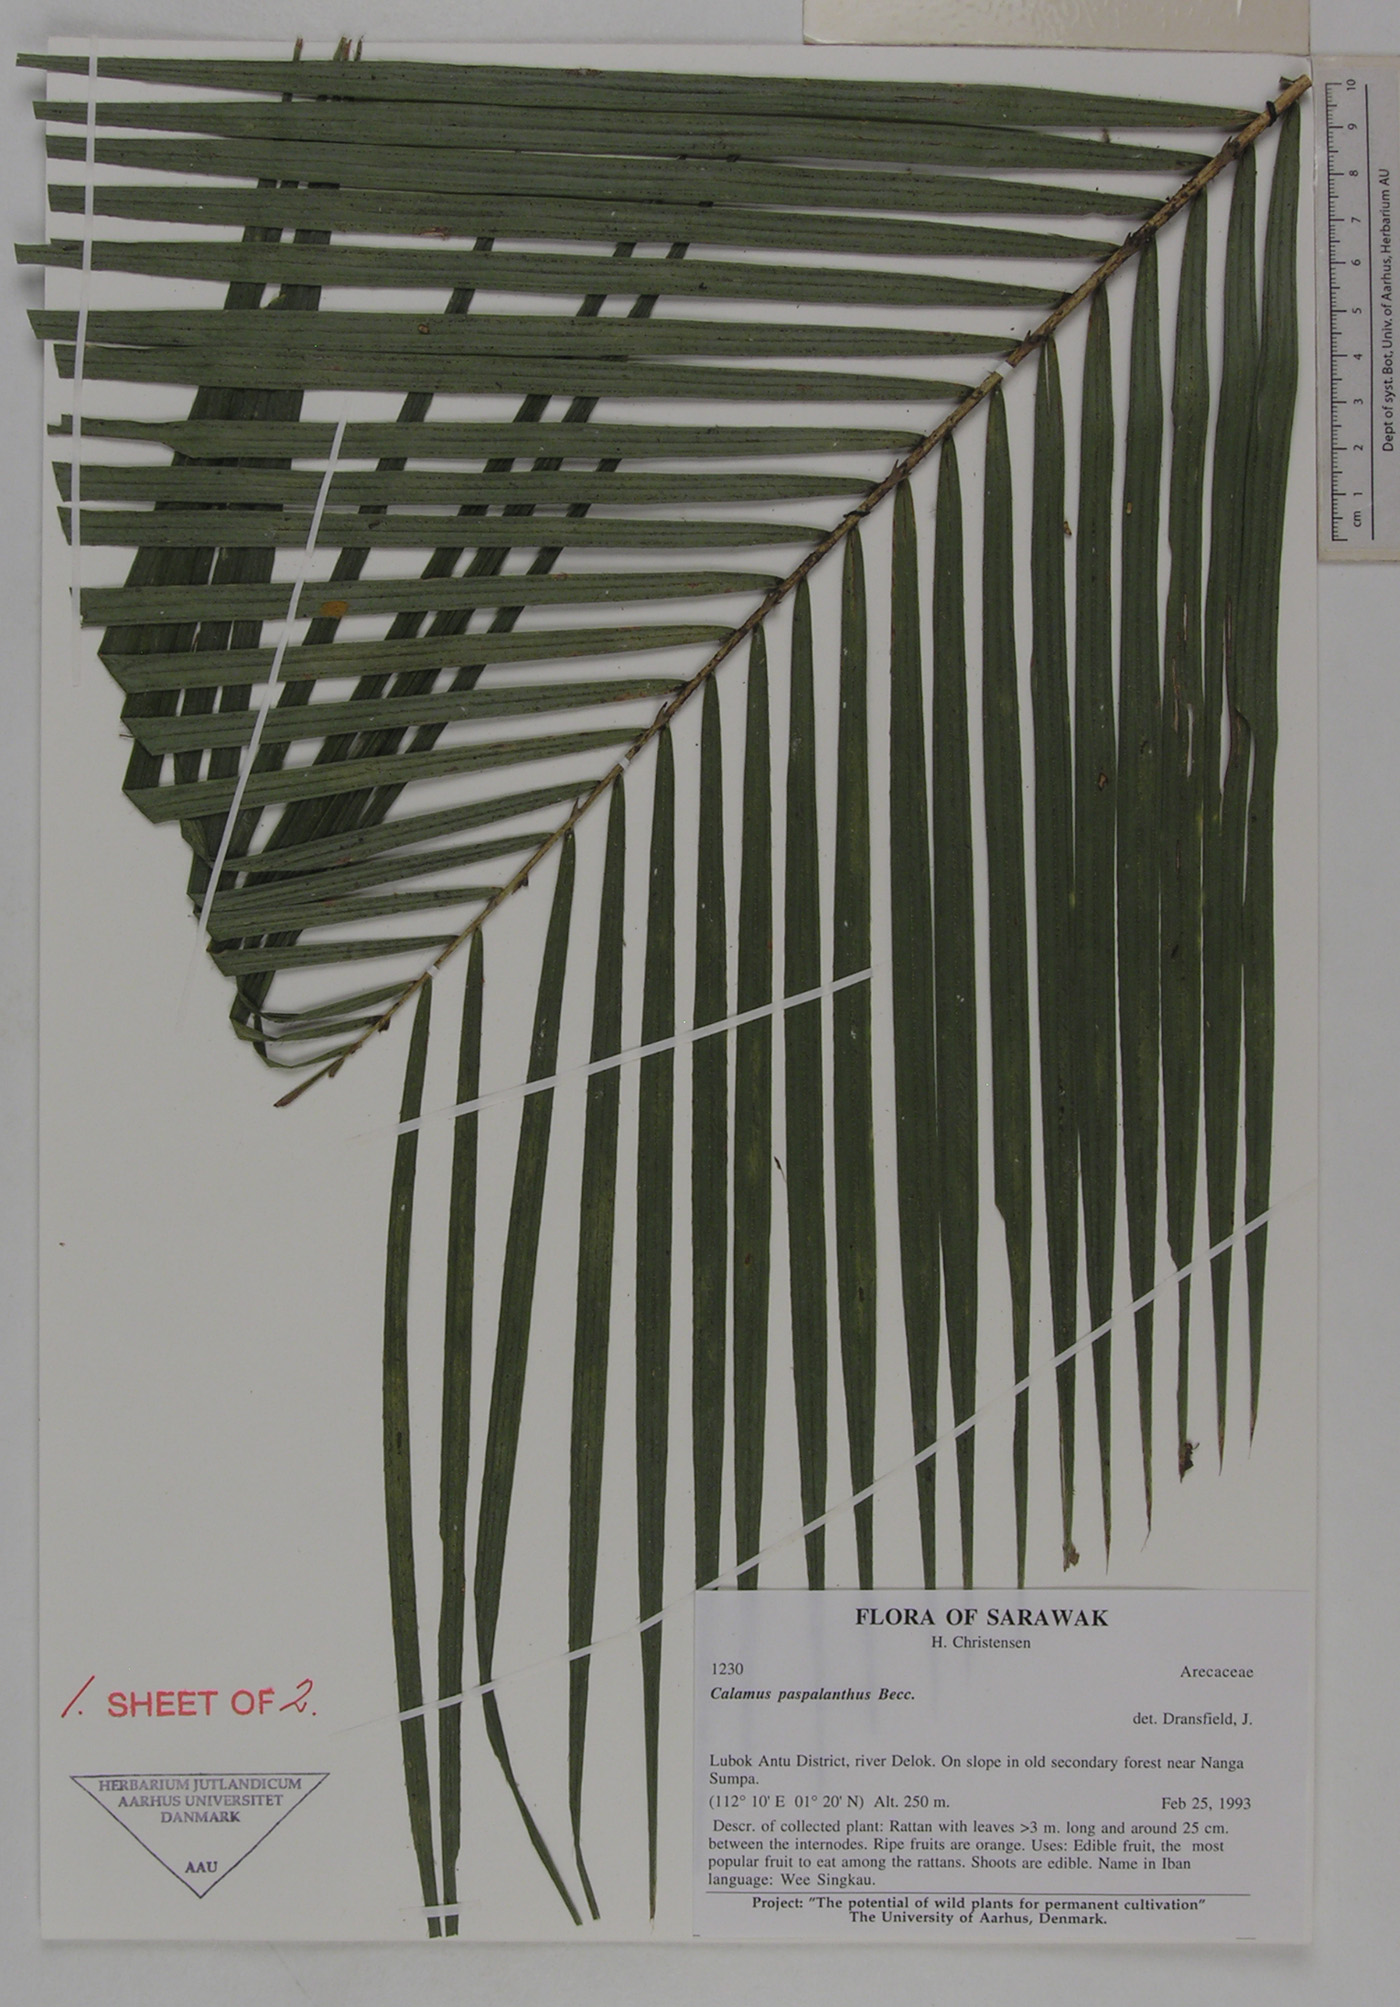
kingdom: Plantae
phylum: Tracheophyta
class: Liliopsida
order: Arecales
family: Arecaceae
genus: Calamus
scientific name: Calamus paspalanthus
